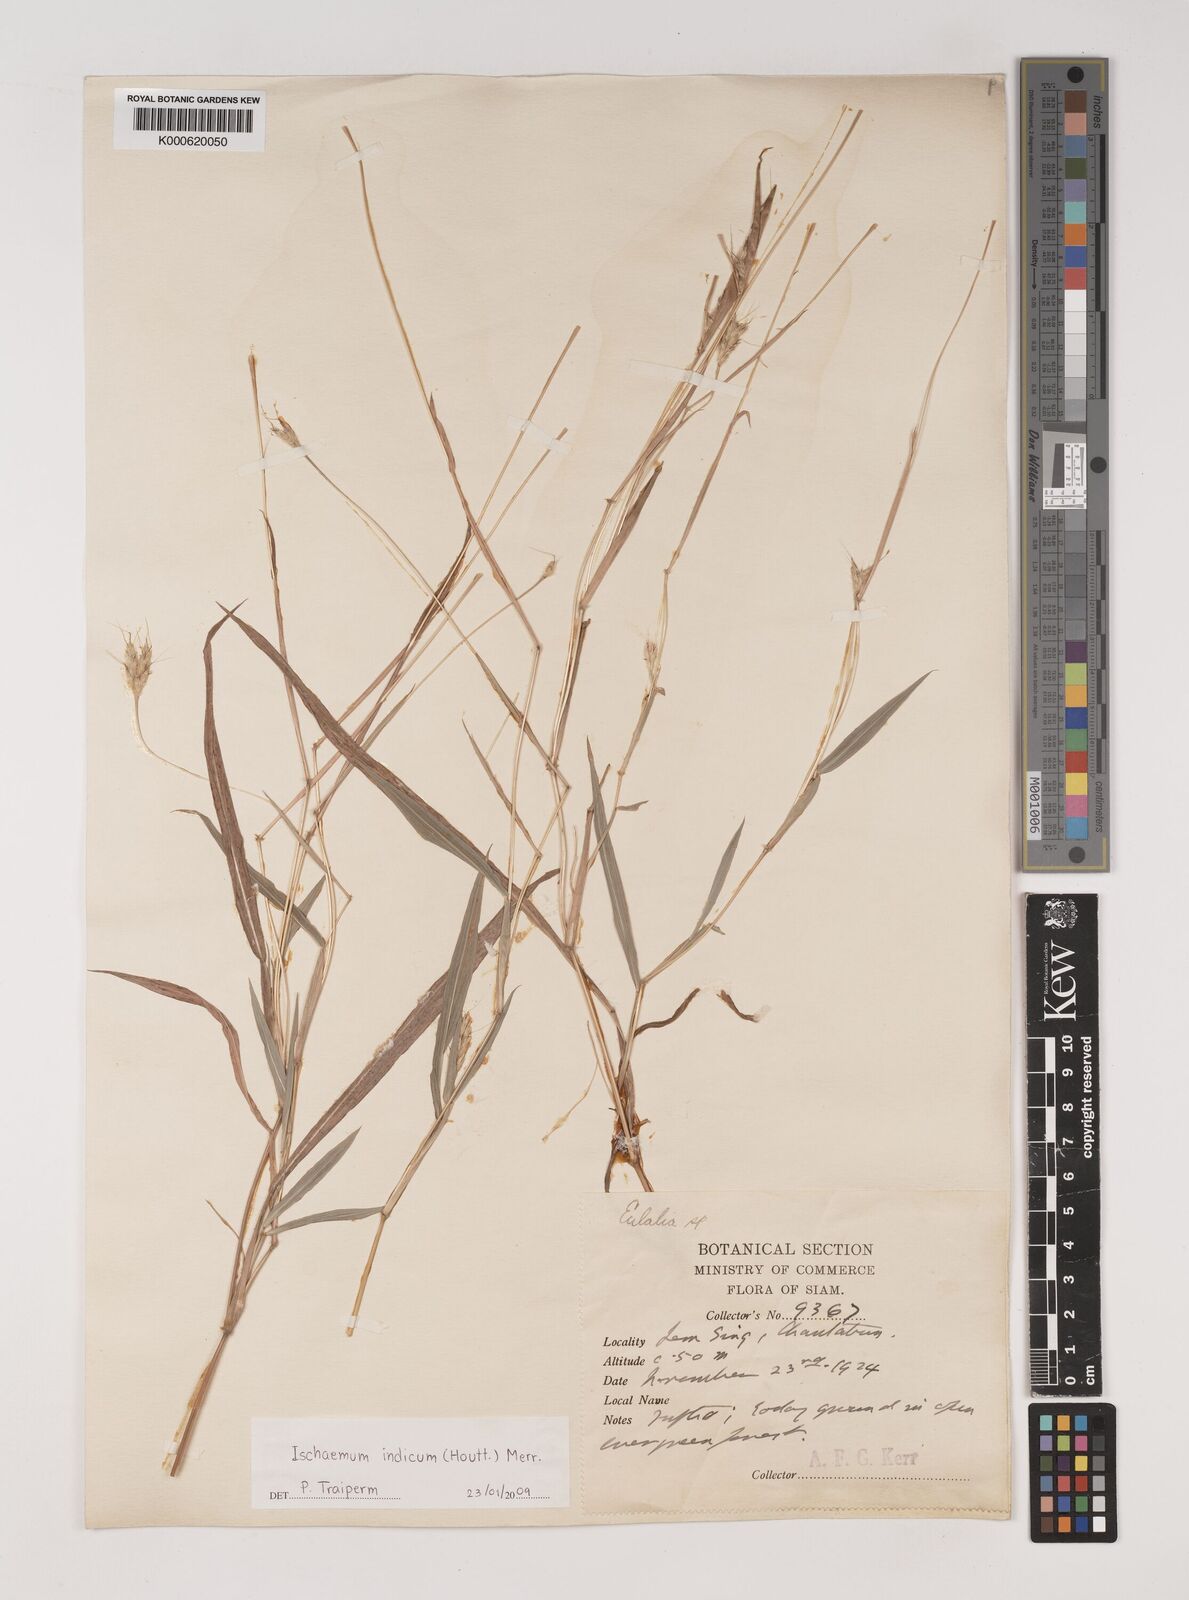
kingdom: Plantae
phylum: Tracheophyta
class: Liliopsida
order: Poales
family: Poaceae
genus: Polytrias
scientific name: Polytrias indica
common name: Indian murainagrass
